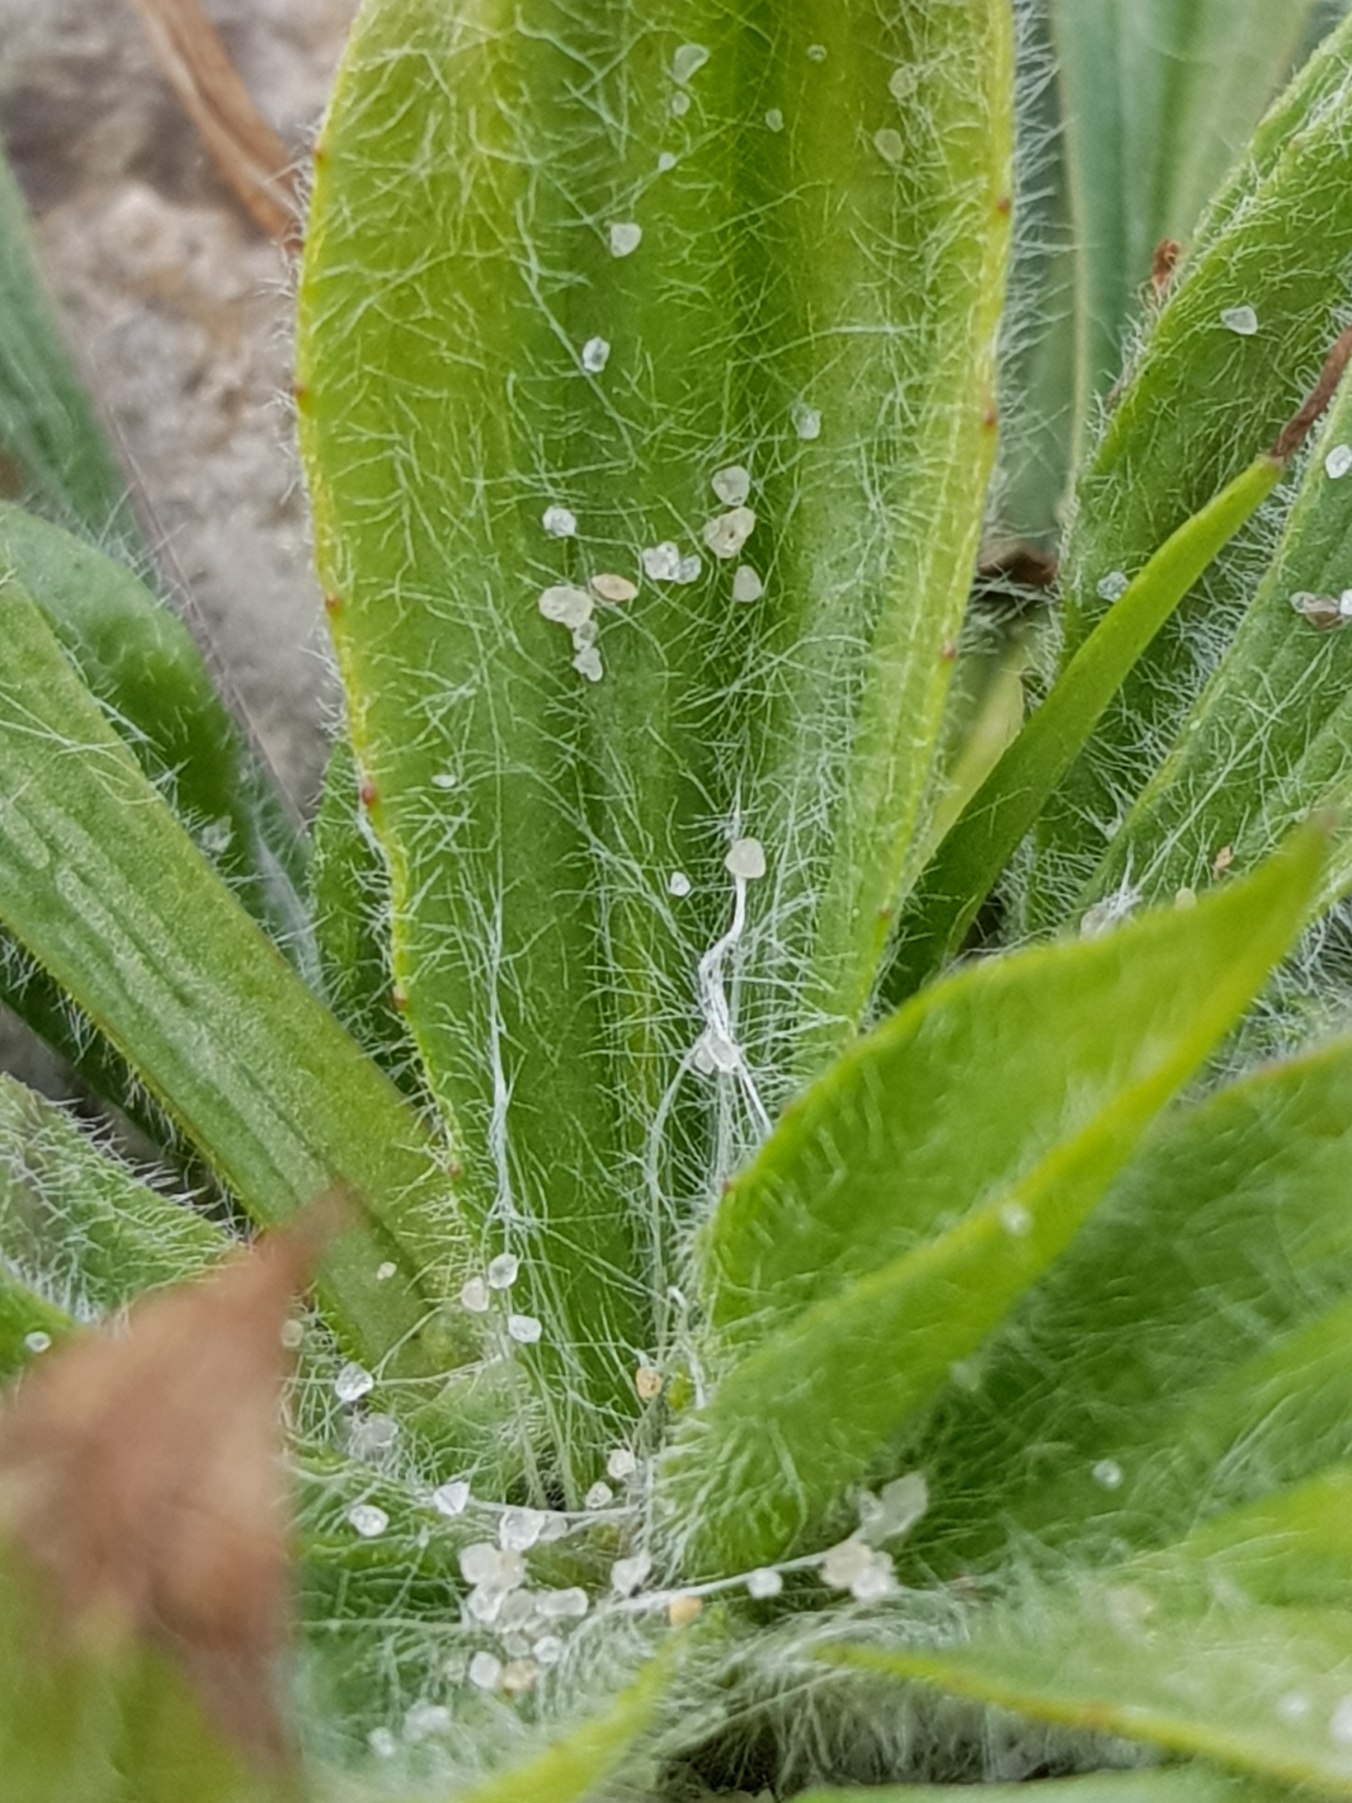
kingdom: Plantae
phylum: Tracheophyta
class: Magnoliopsida
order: Lamiales
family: Plantaginaceae
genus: Plantago
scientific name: Plantago lanceolata
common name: Lancet-vejbred
